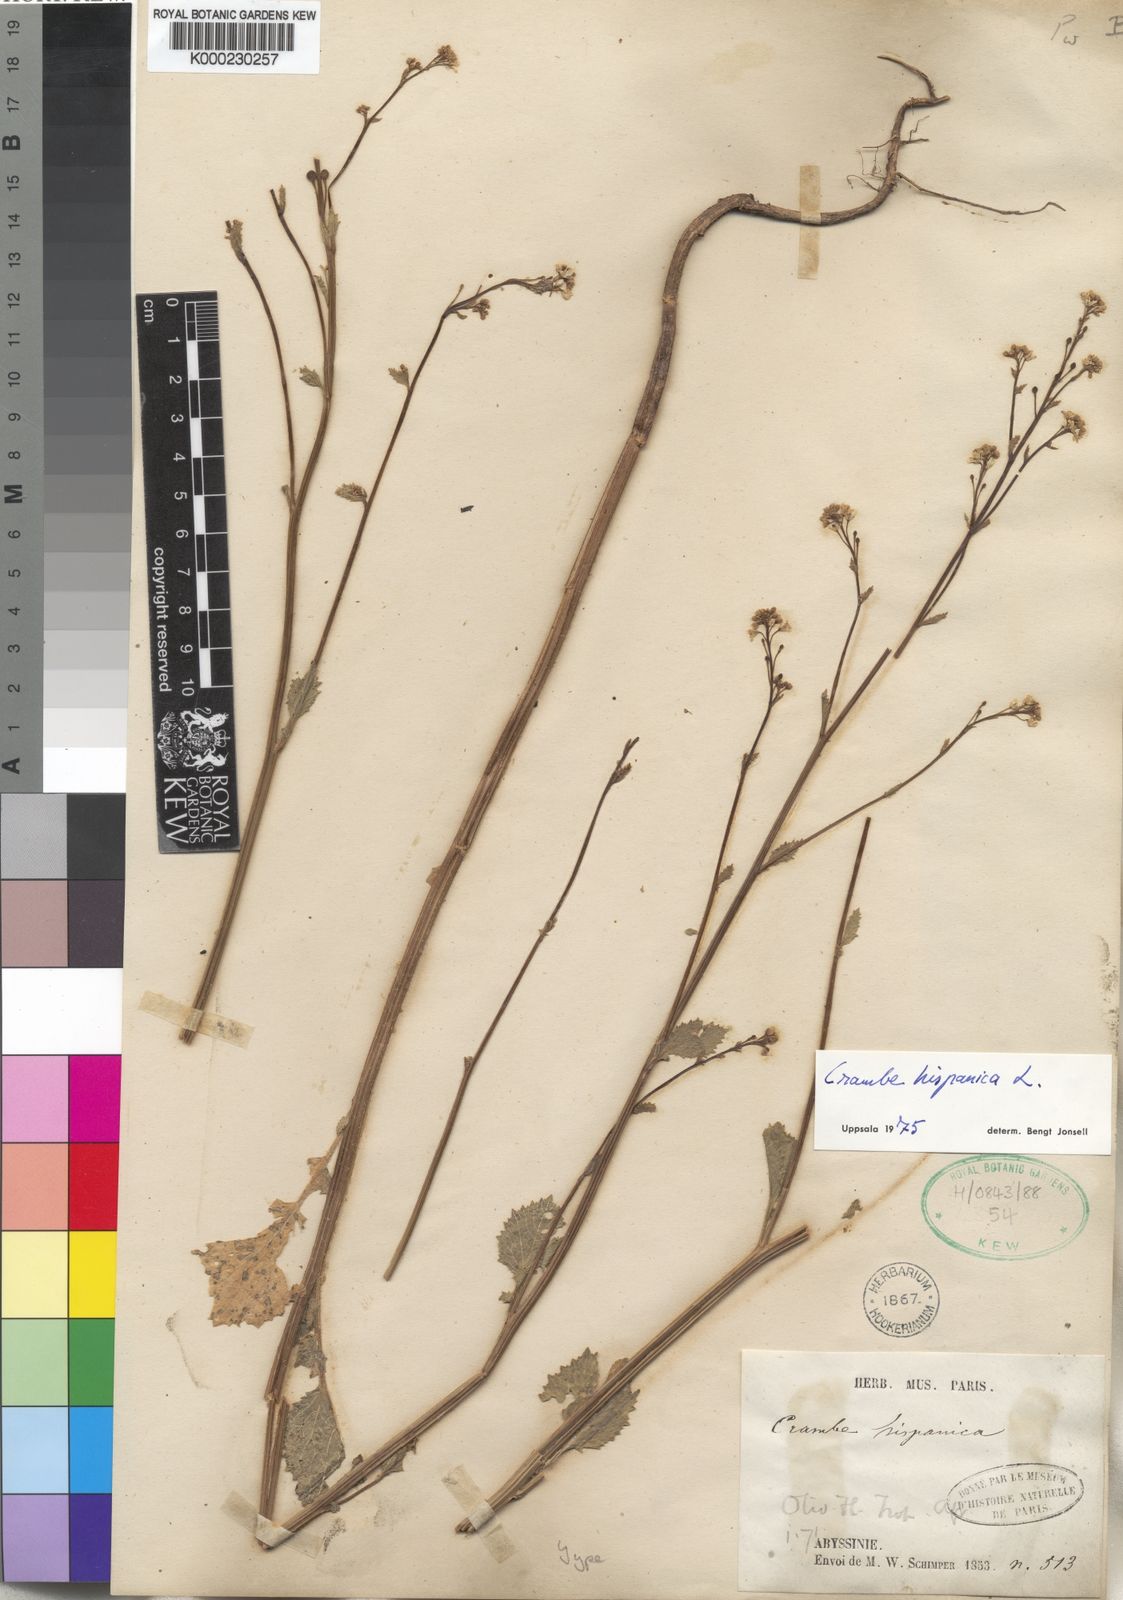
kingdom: Plantae
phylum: Tracheophyta
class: Magnoliopsida
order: Brassicales
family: Brassicaceae
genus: Crambe
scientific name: Crambe hispanica
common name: Abyssinian mustard
